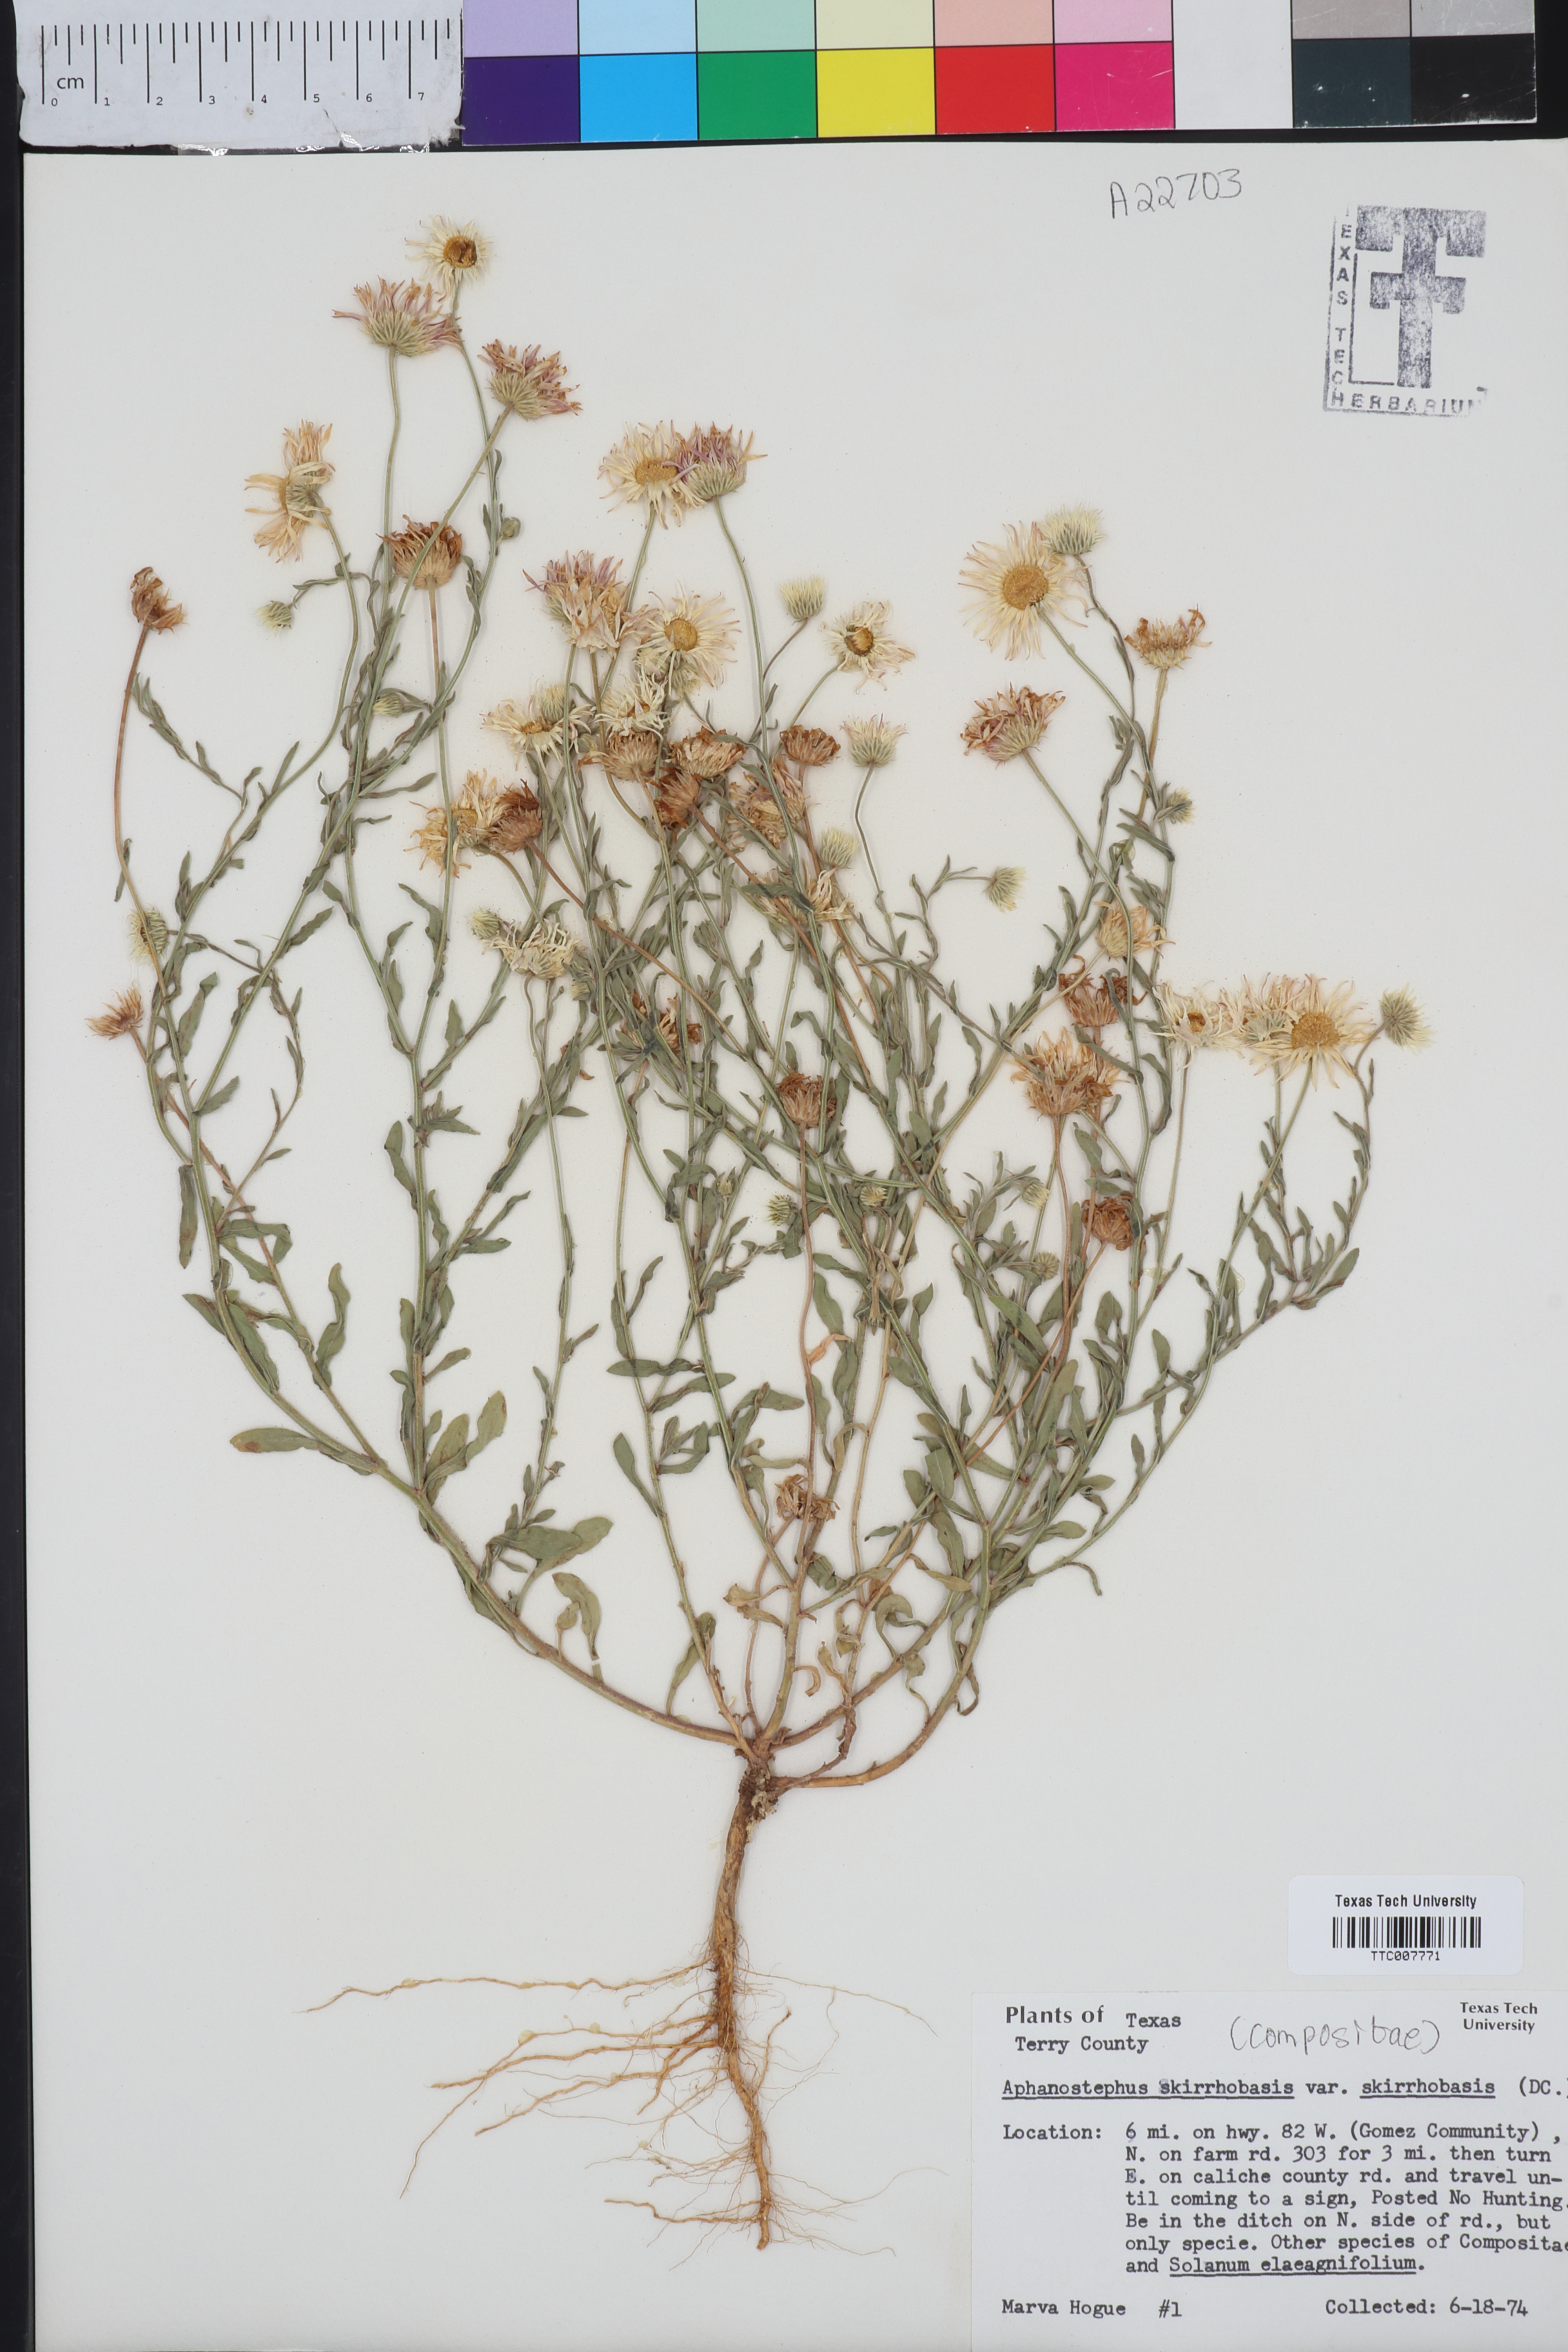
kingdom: Plantae
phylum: Tracheophyta
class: Magnoliopsida
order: Asterales
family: Asteraceae
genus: Aphanostephus
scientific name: Aphanostephus skirrhobasis
